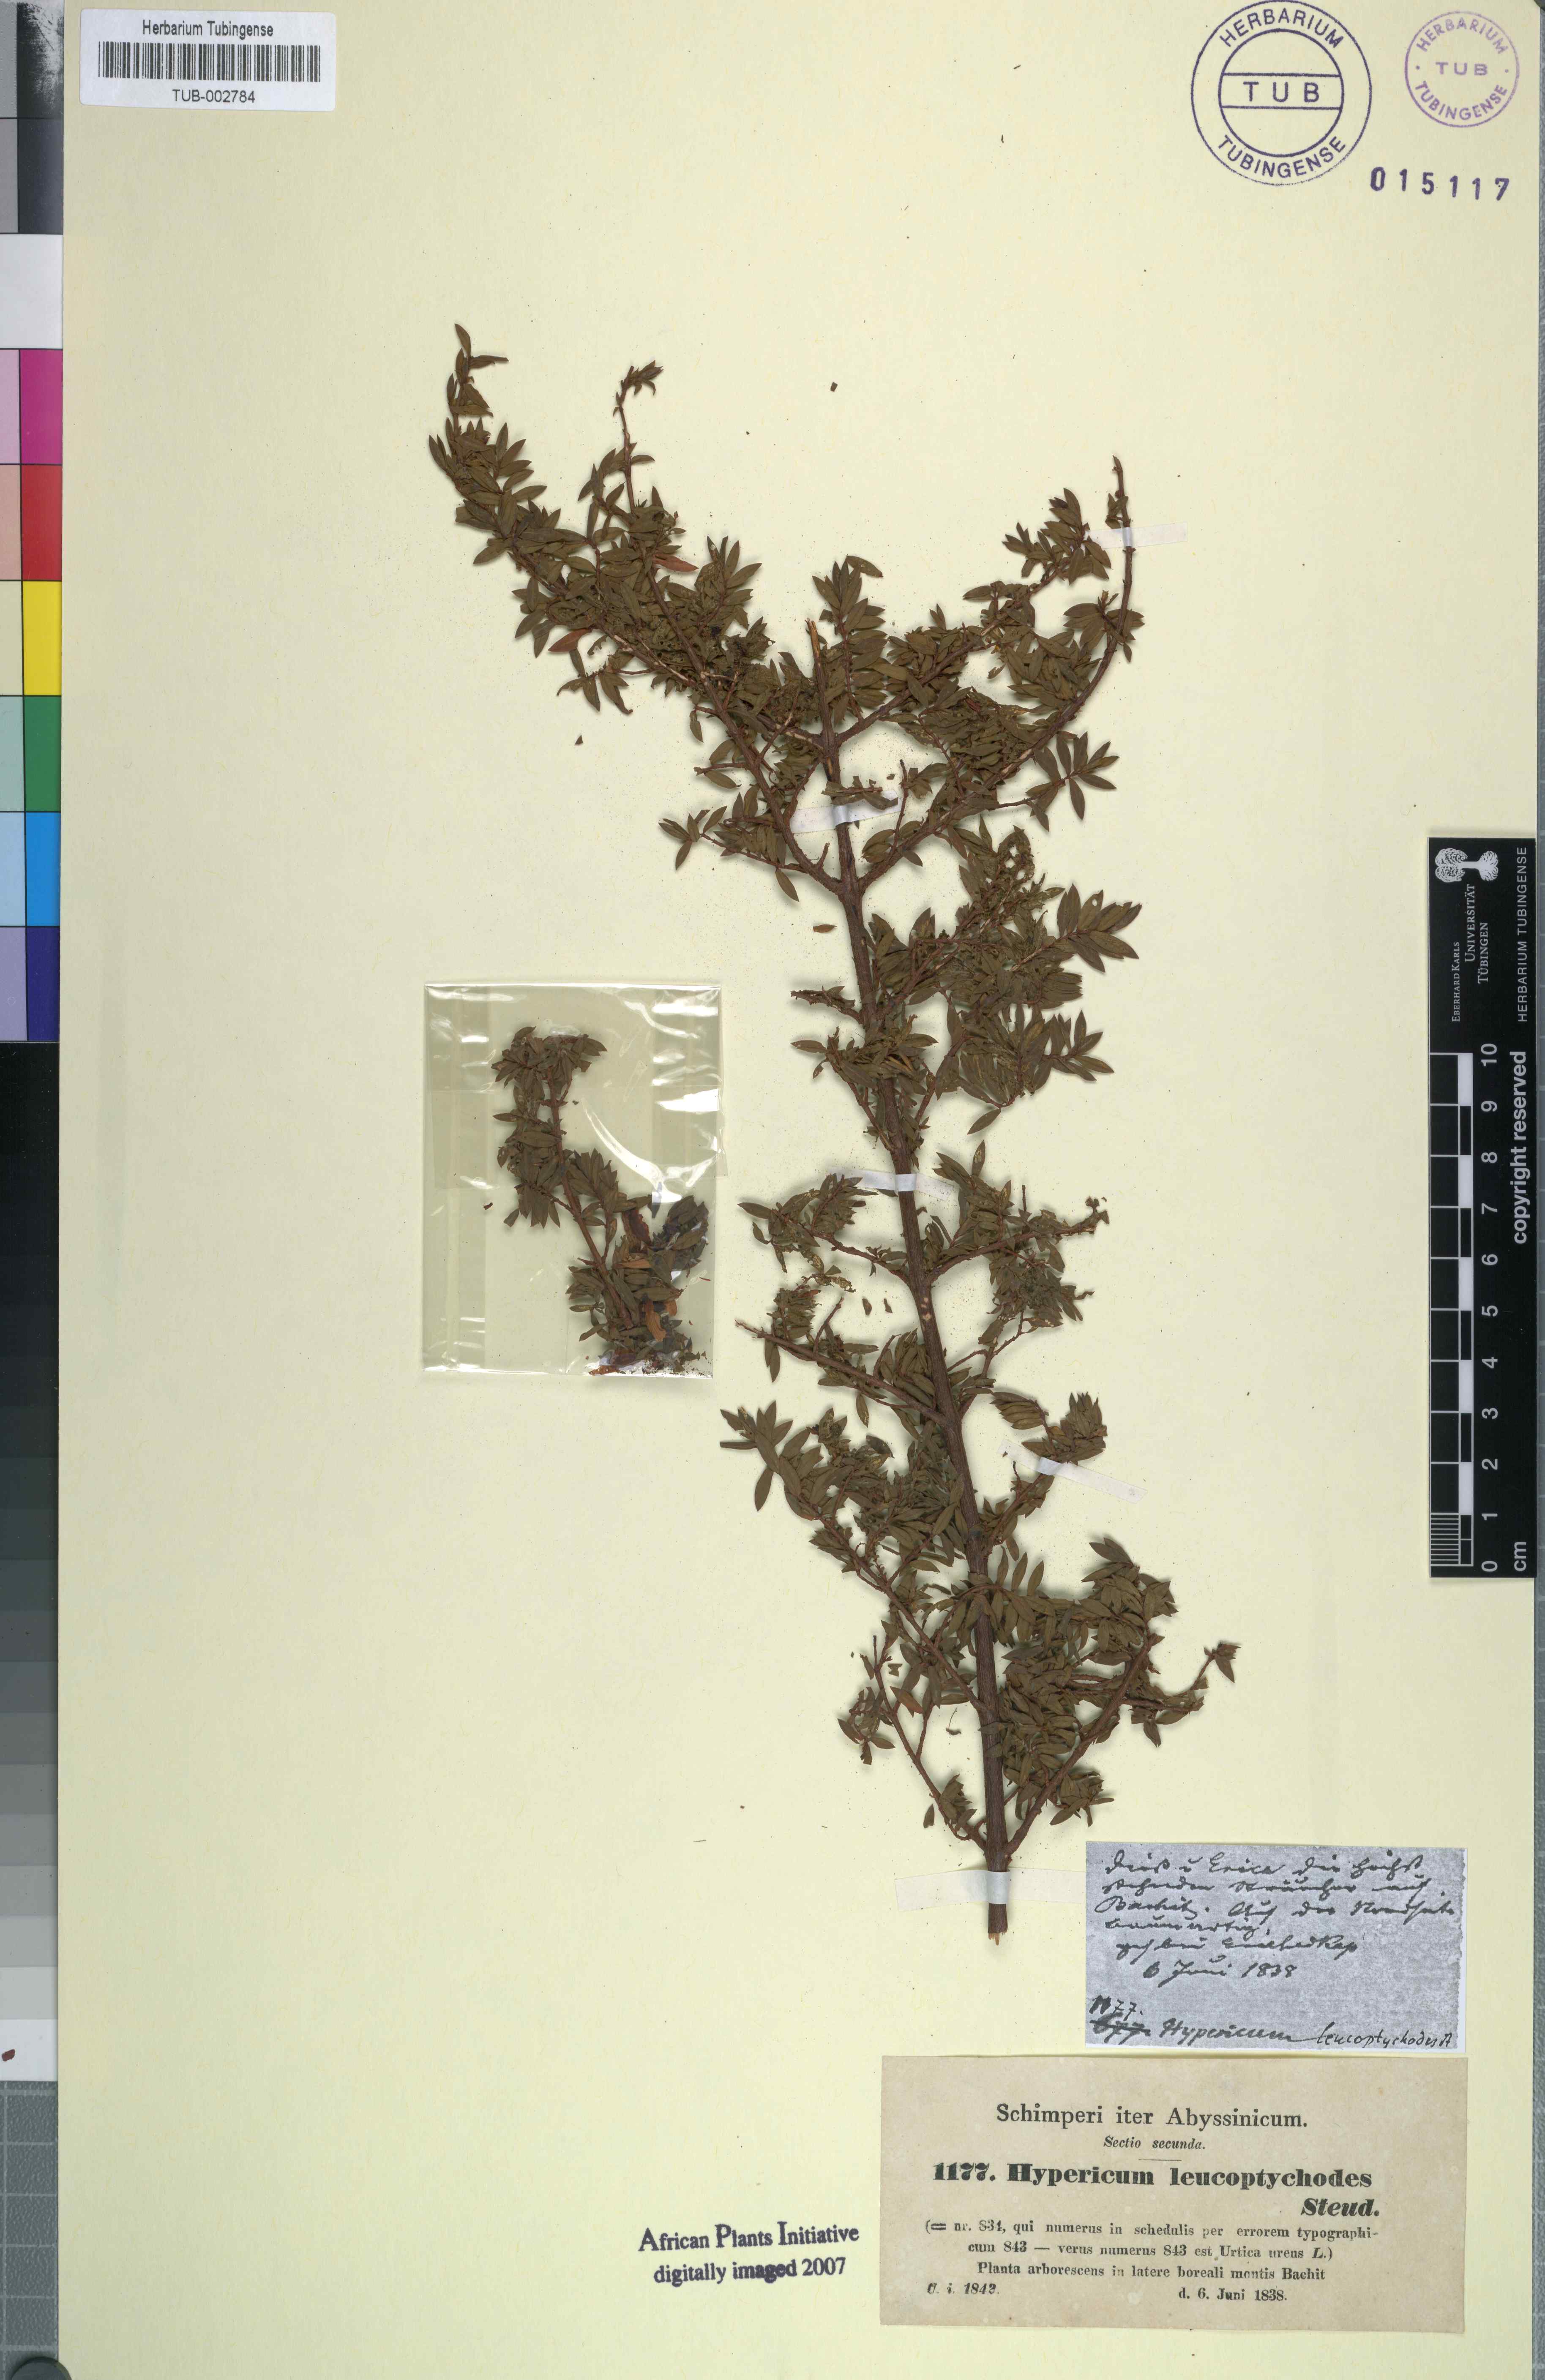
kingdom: Plantae
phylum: Tracheophyta
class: Magnoliopsida
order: Malpighiales
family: Hypericaceae
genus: Hypericum
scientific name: Hypericum lanceolatum
